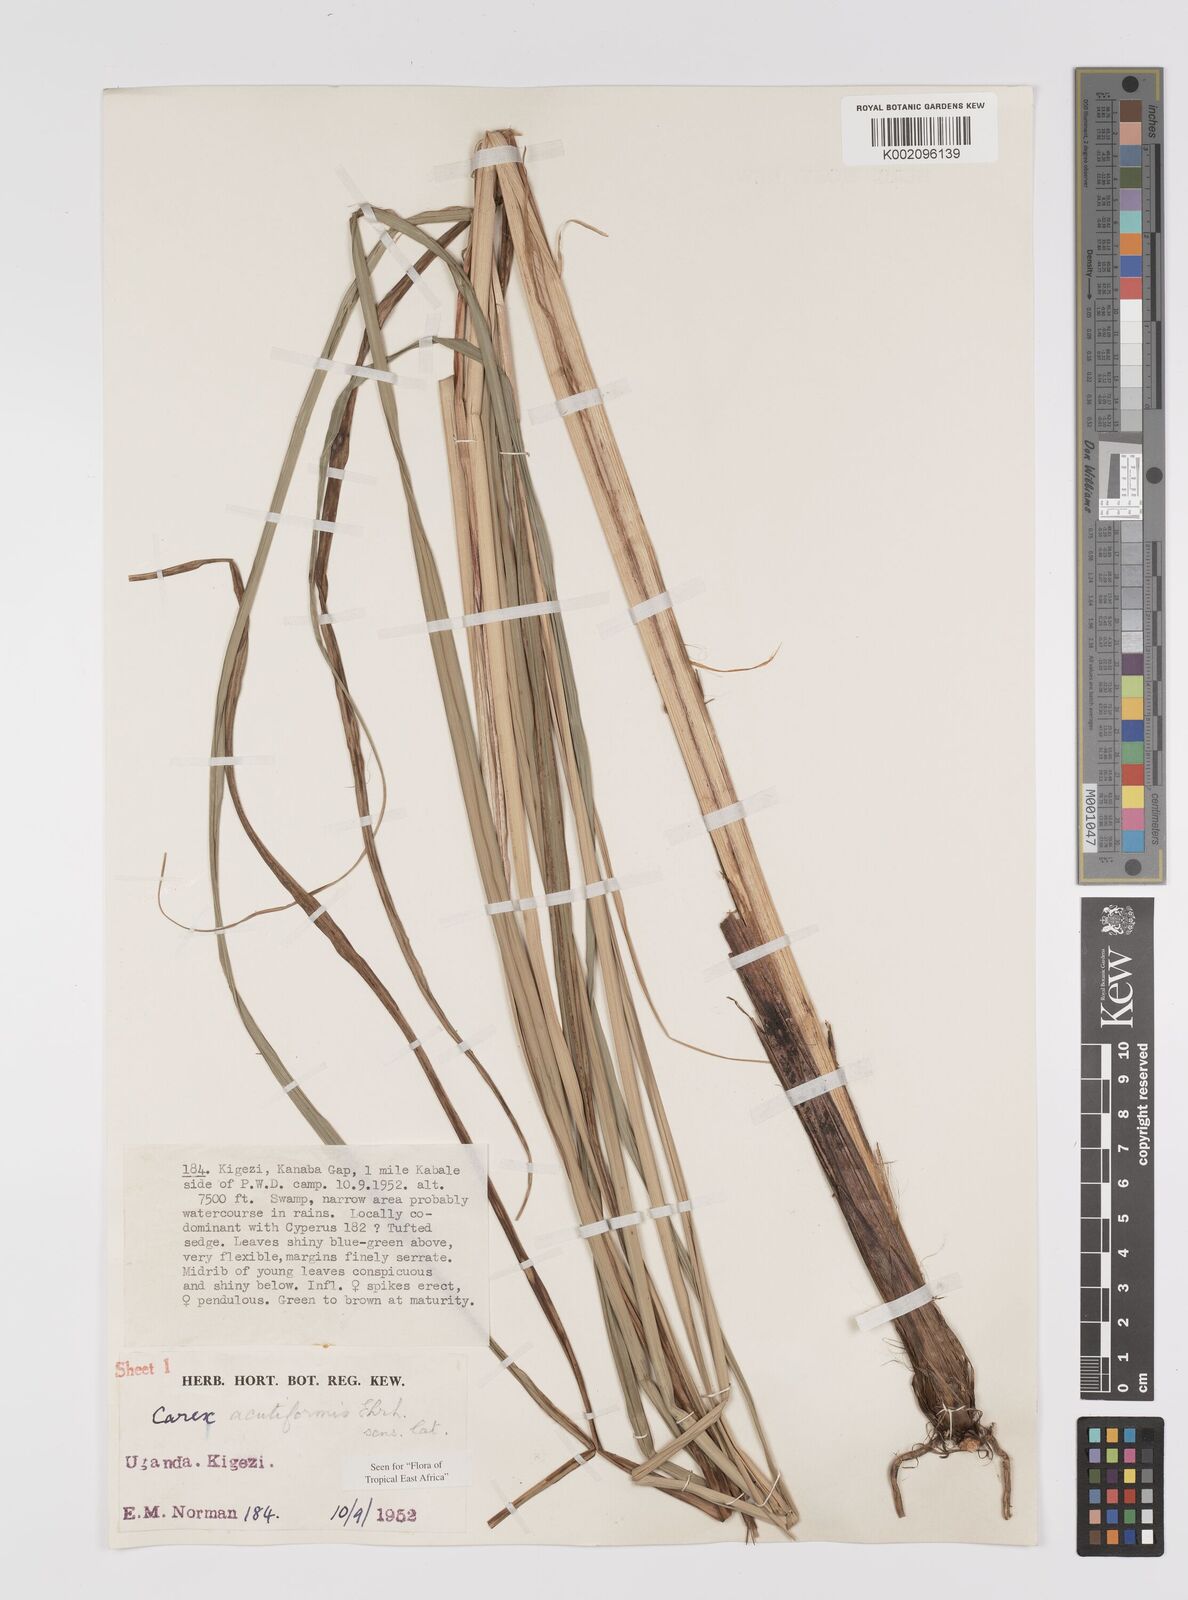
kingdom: Plantae
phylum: Tracheophyta
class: Liliopsida
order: Poales
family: Cyperaceae
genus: Carex
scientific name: Carex acutiformis
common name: Lesser pond-sedge
